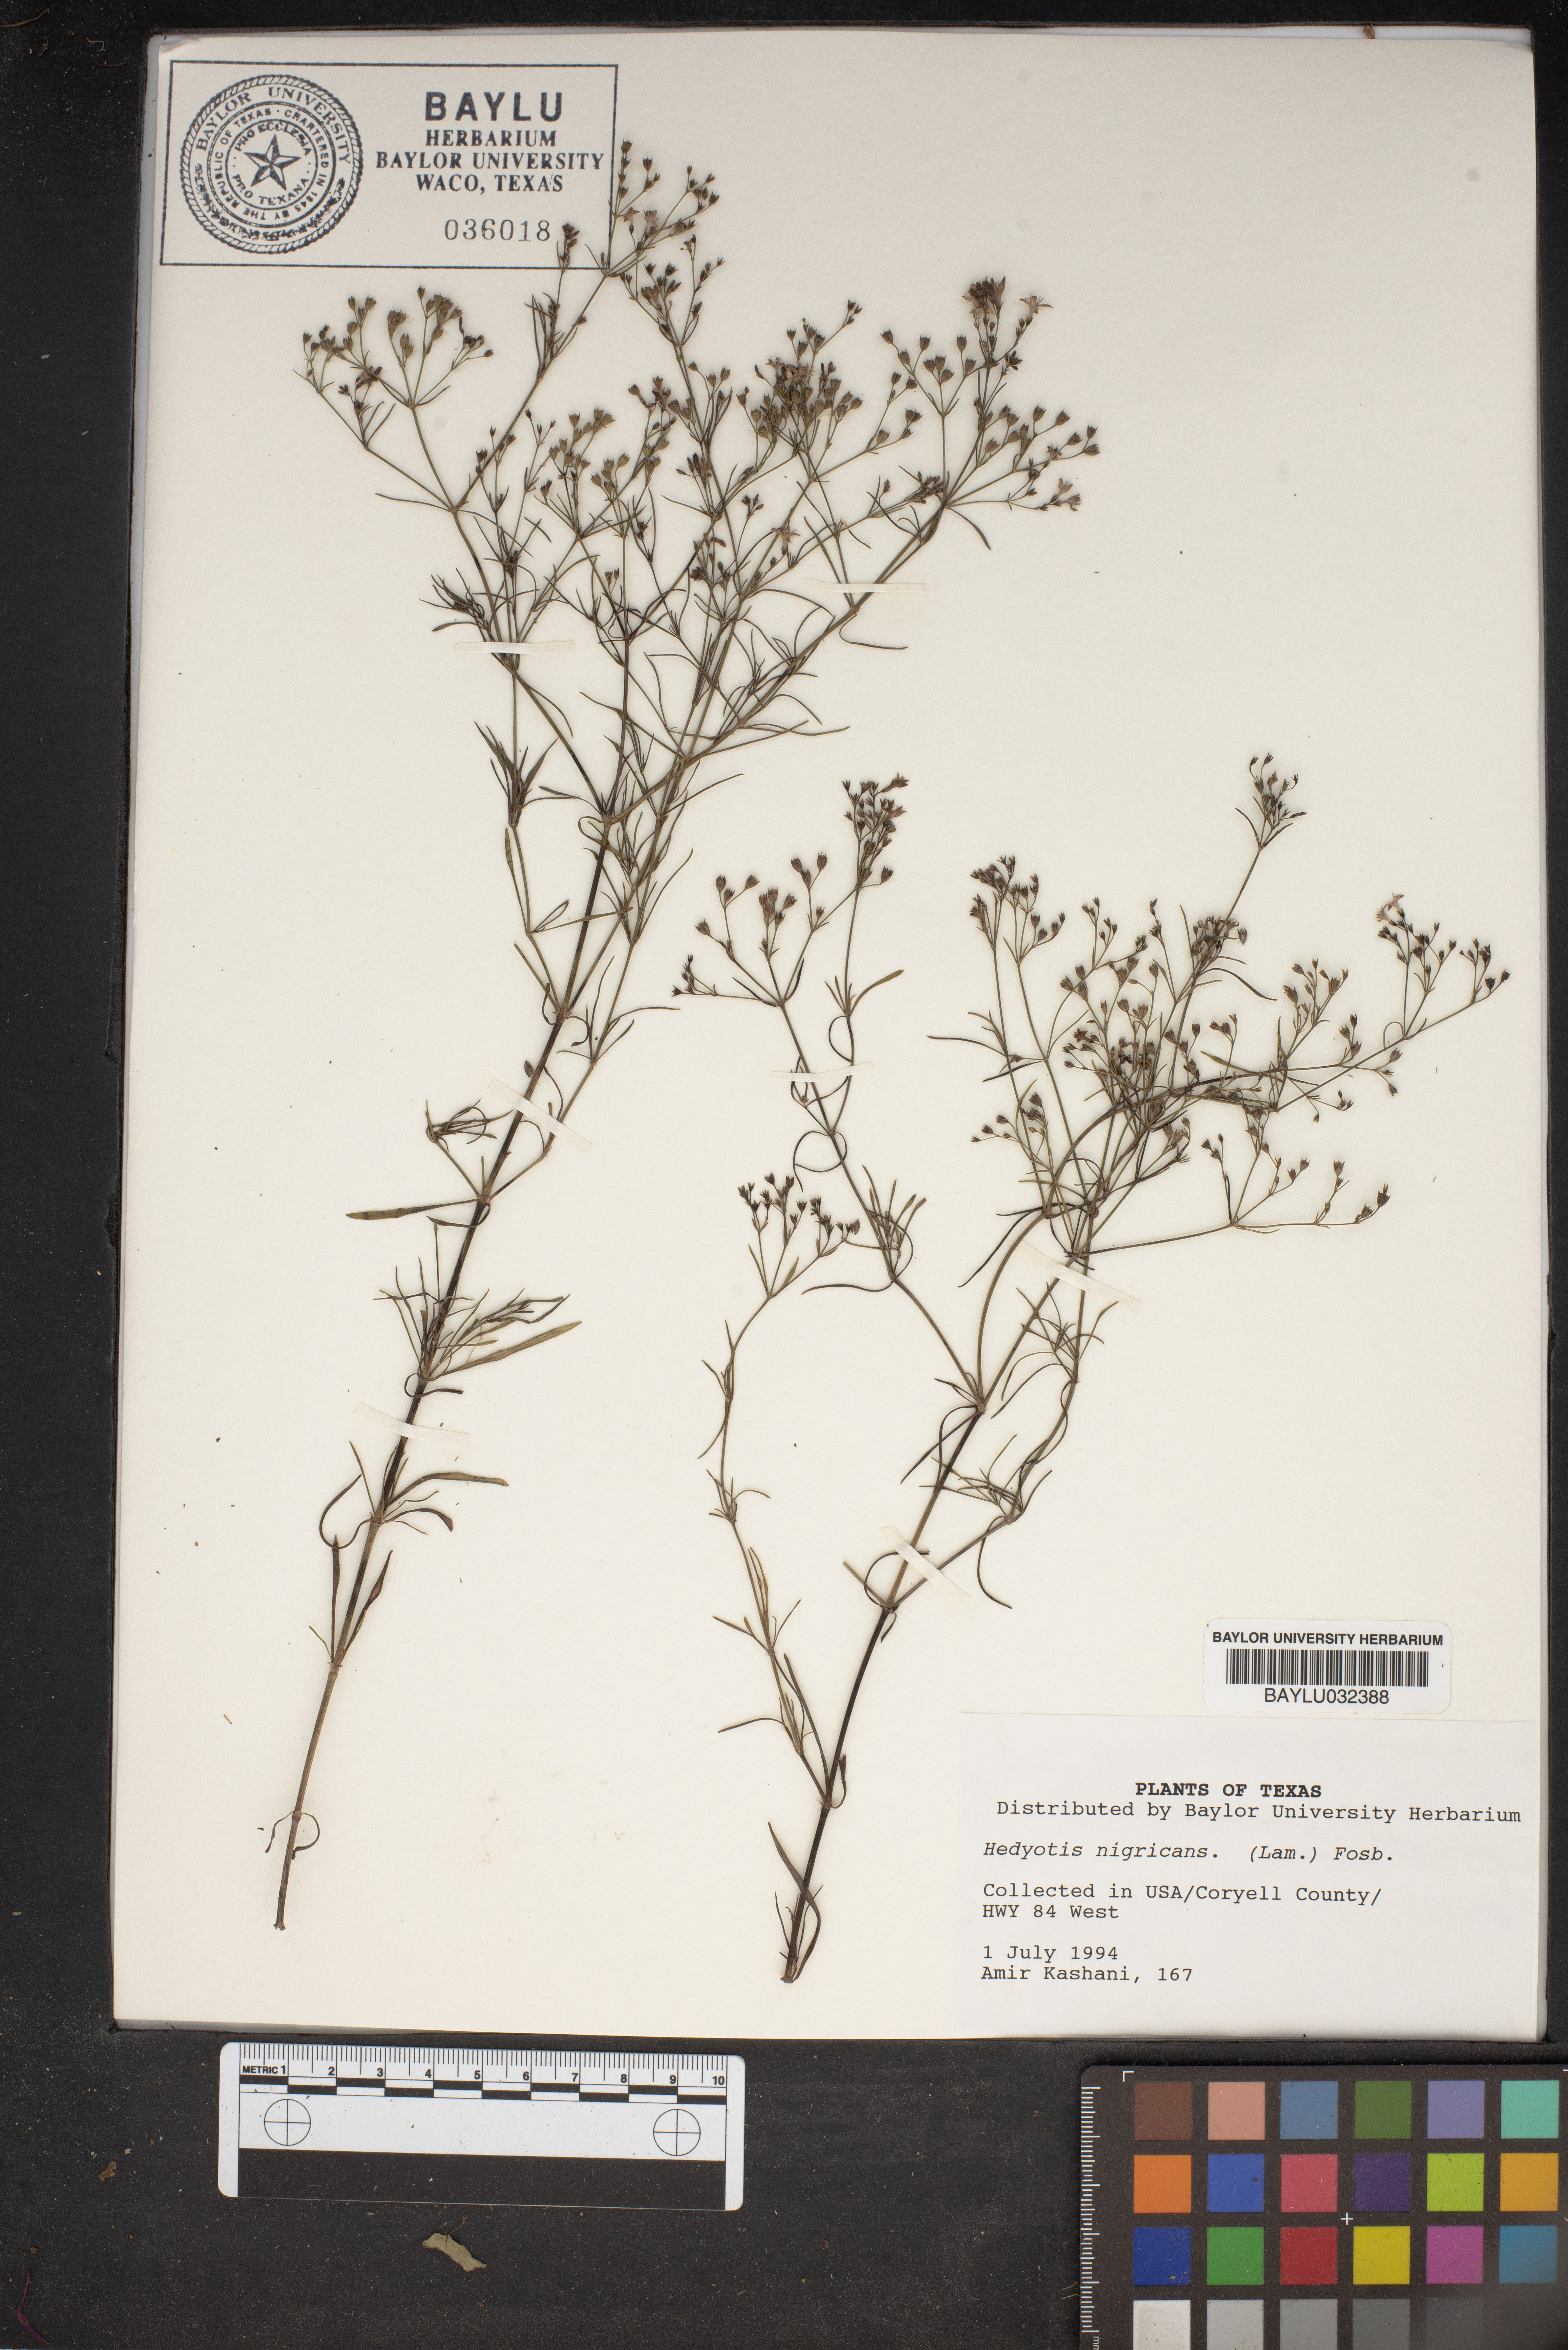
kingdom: Plantae
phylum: Tracheophyta
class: Magnoliopsida
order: Gentianales
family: Rubiaceae
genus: Stenaria
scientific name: Stenaria nigricans
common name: Diamondflowers
